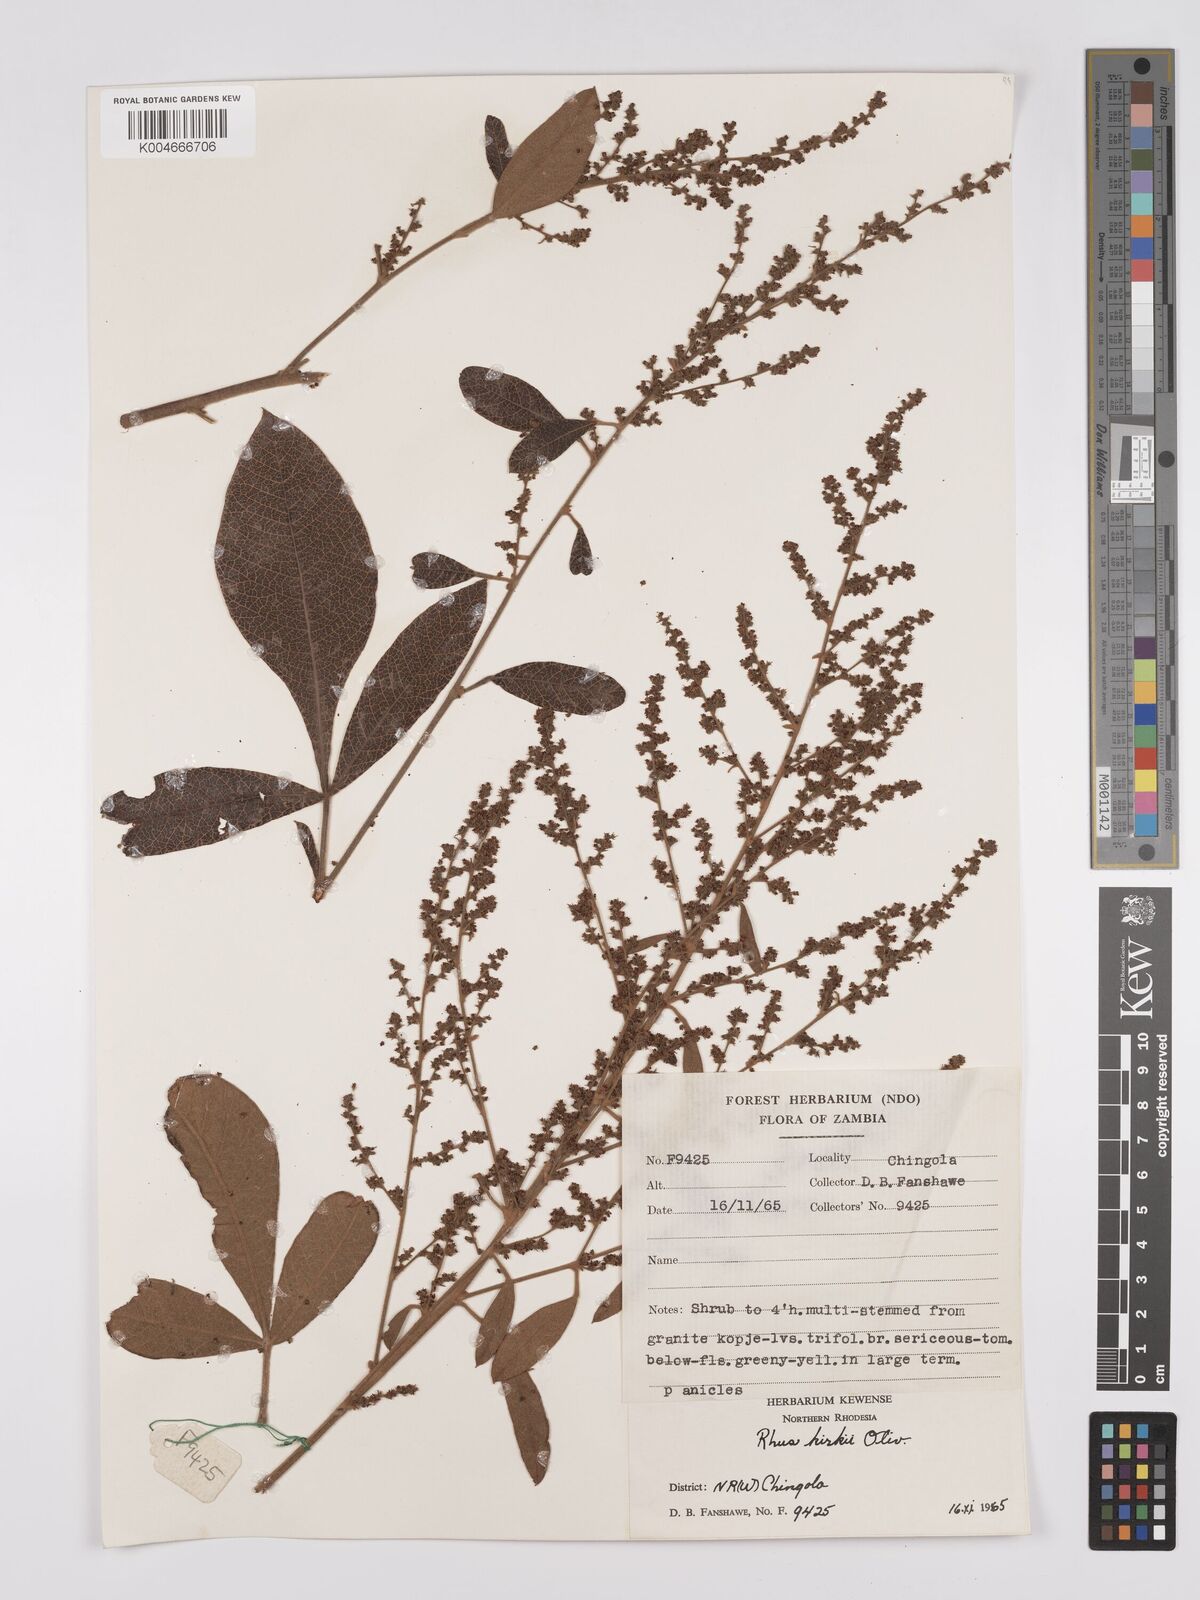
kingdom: Plantae
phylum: Tracheophyta
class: Magnoliopsida
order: Sapindales
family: Anacardiaceae
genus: Searsia
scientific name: Searsia kirkii
